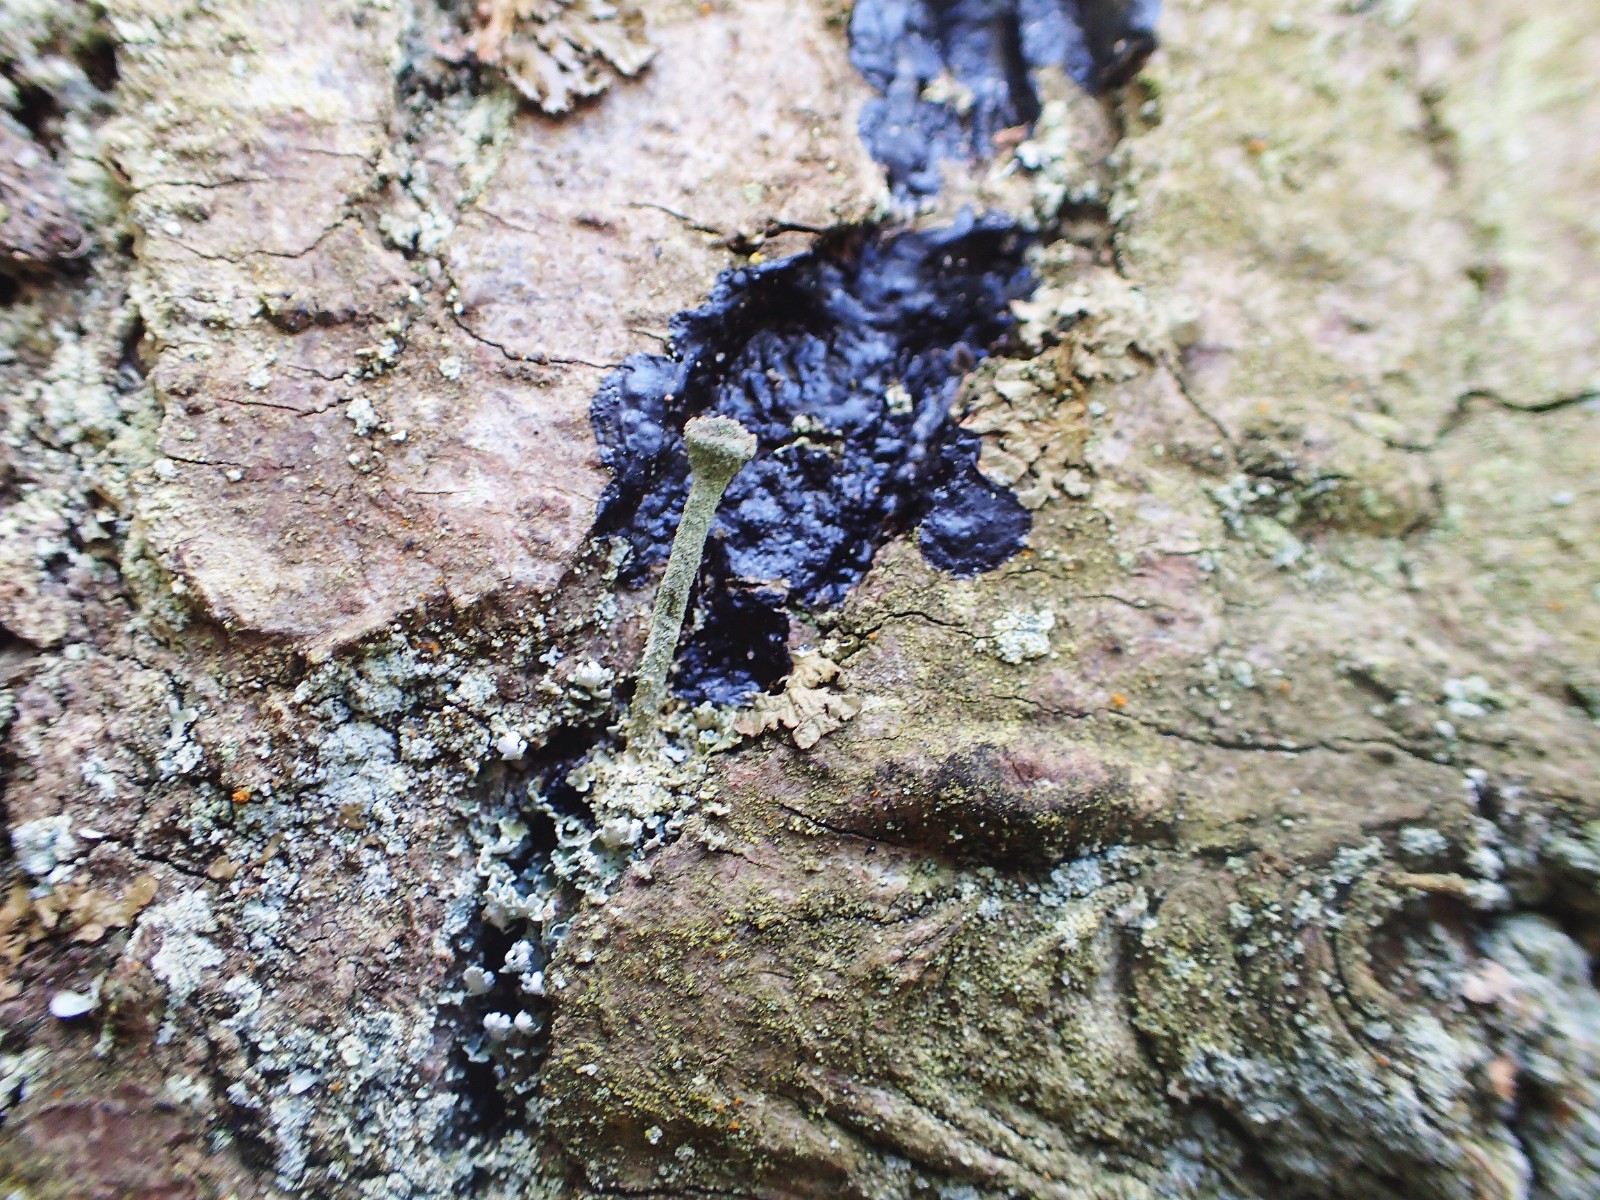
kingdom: Fungi
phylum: Basidiomycota
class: Agaricomycetes
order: Auriculariales
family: Auriculariaceae
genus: Exidia
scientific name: Exidia pithya
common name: gran-bævretop
